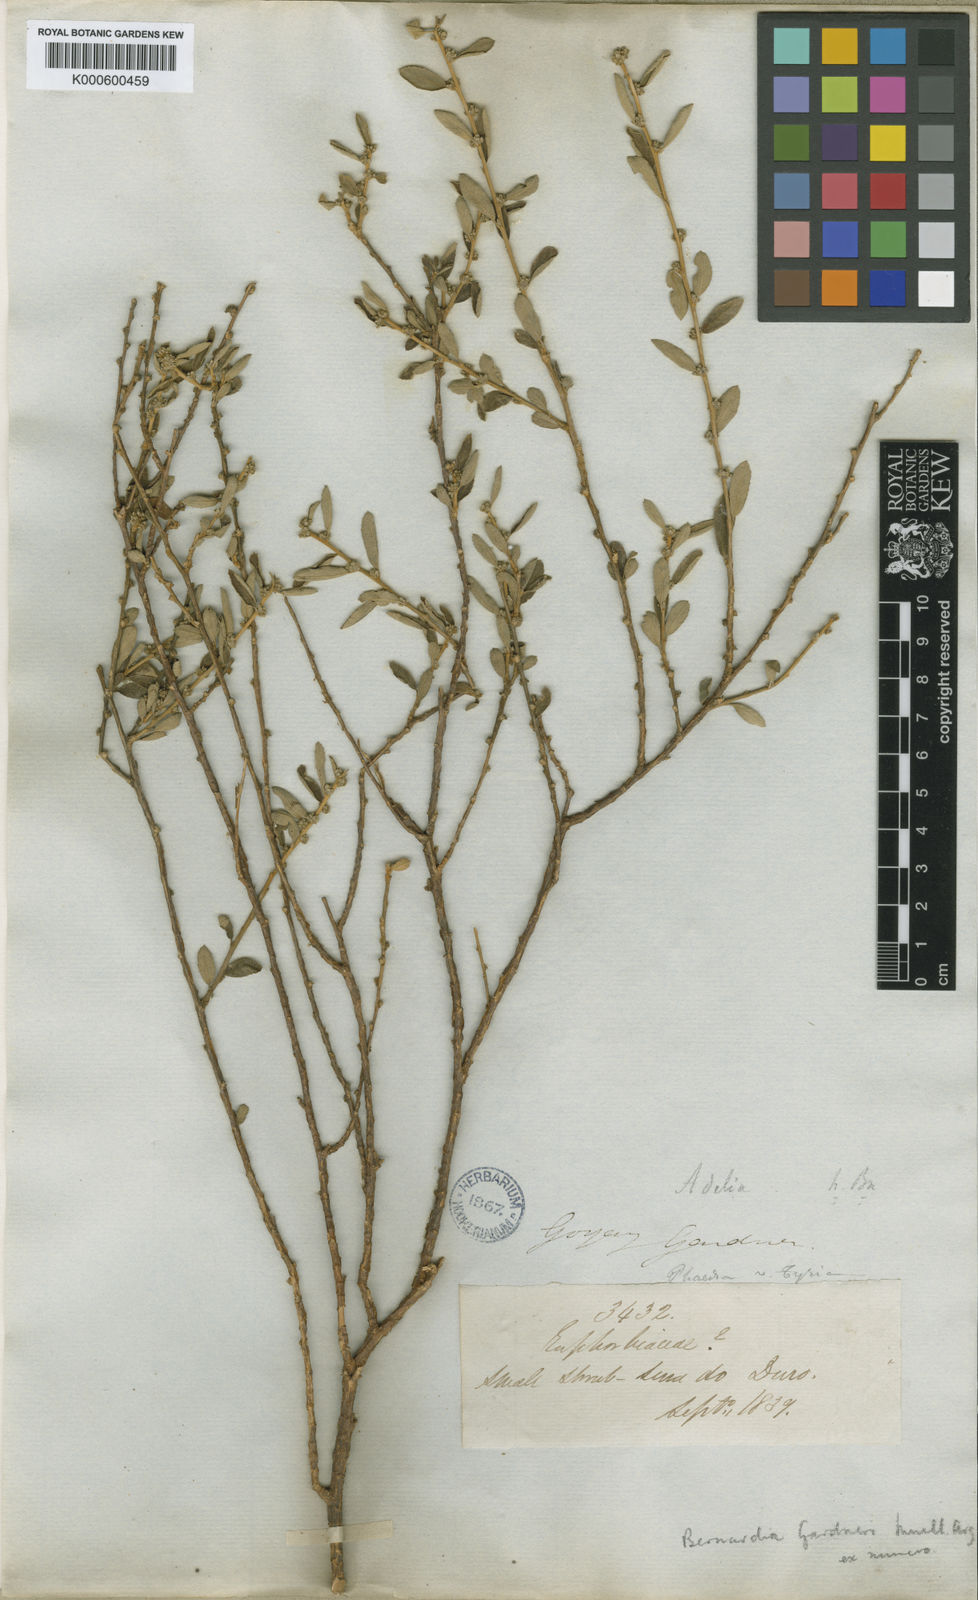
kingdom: Plantae
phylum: Tracheophyta
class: Magnoliopsida
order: Malpighiales
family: Euphorbiaceae
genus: Bernardia
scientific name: Bernardia
